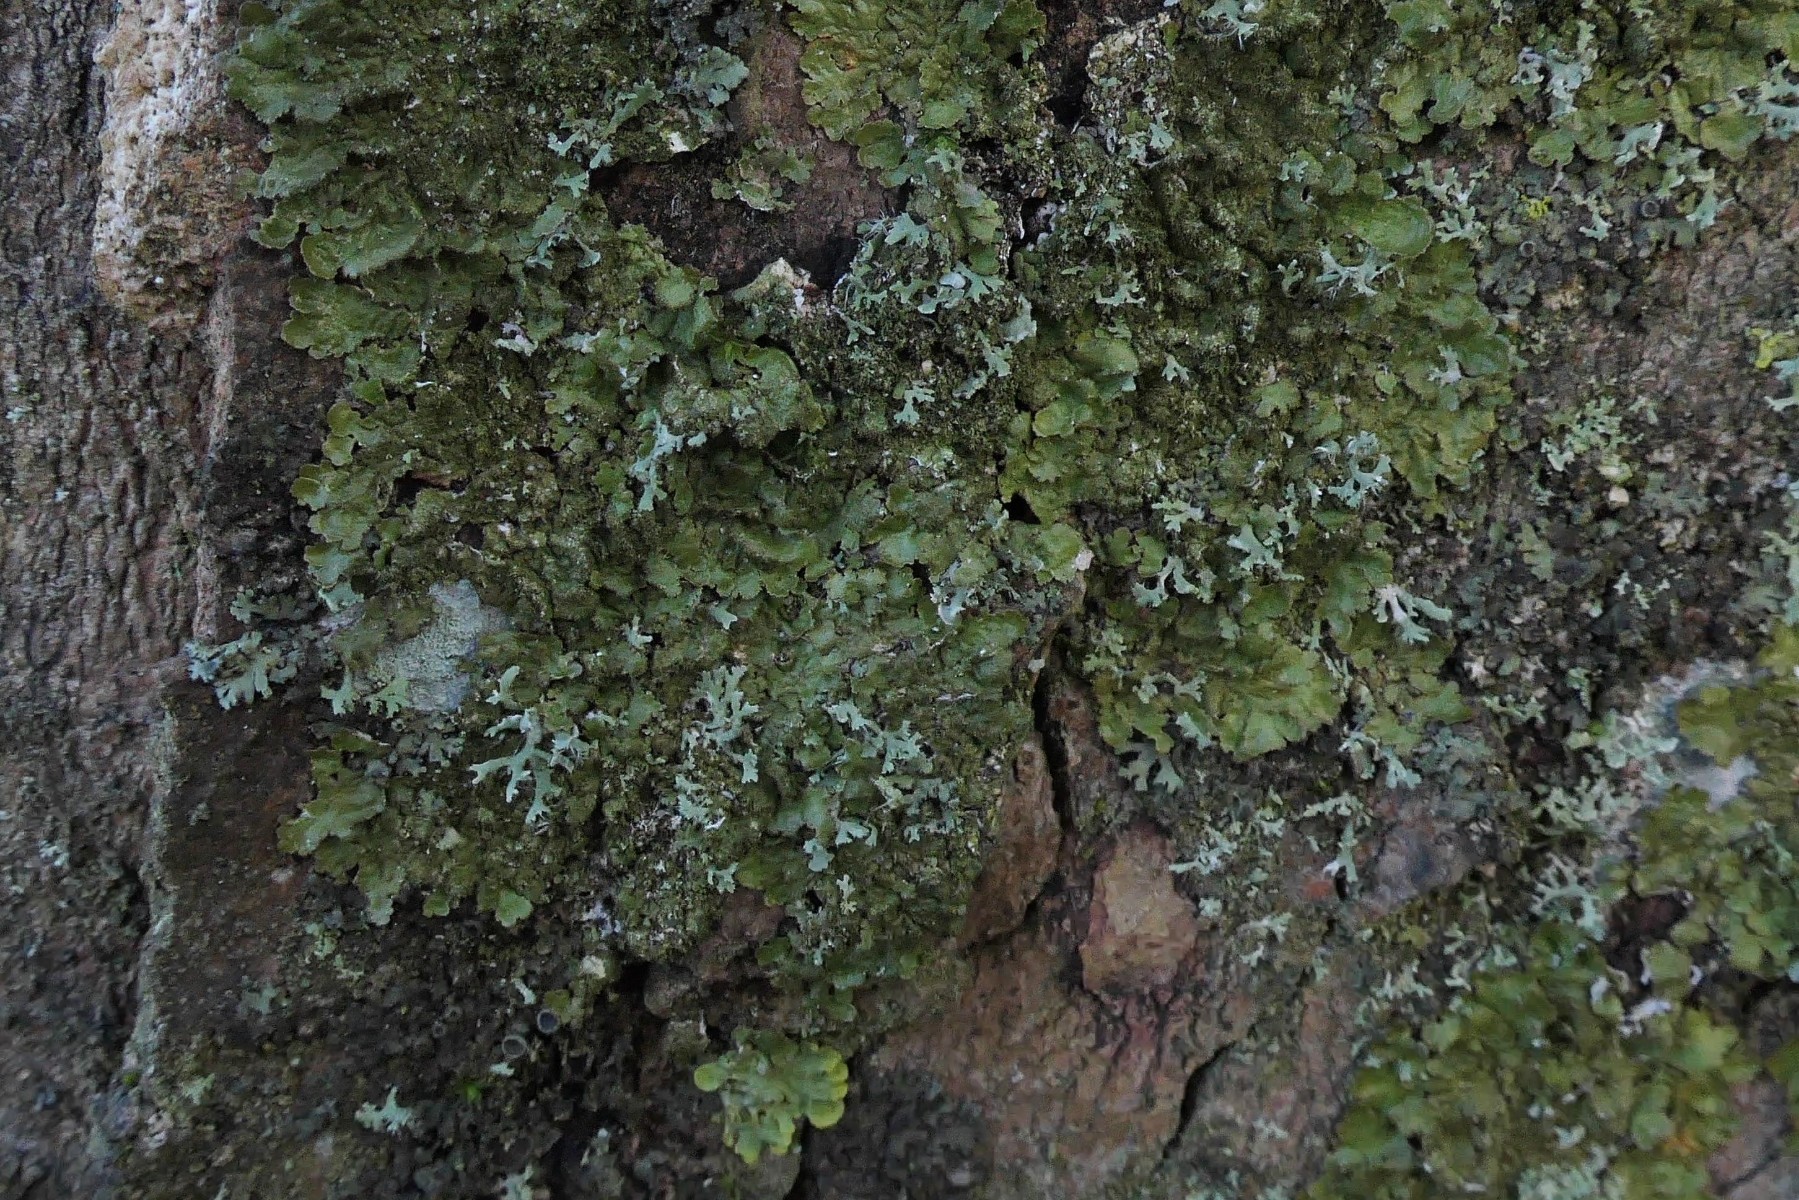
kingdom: Fungi
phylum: Ascomycota
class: Lecanoromycetes
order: Lecanorales
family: Parmeliaceae
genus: Melanelixia
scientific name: Melanelixia glabratula
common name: glinsende skållav
